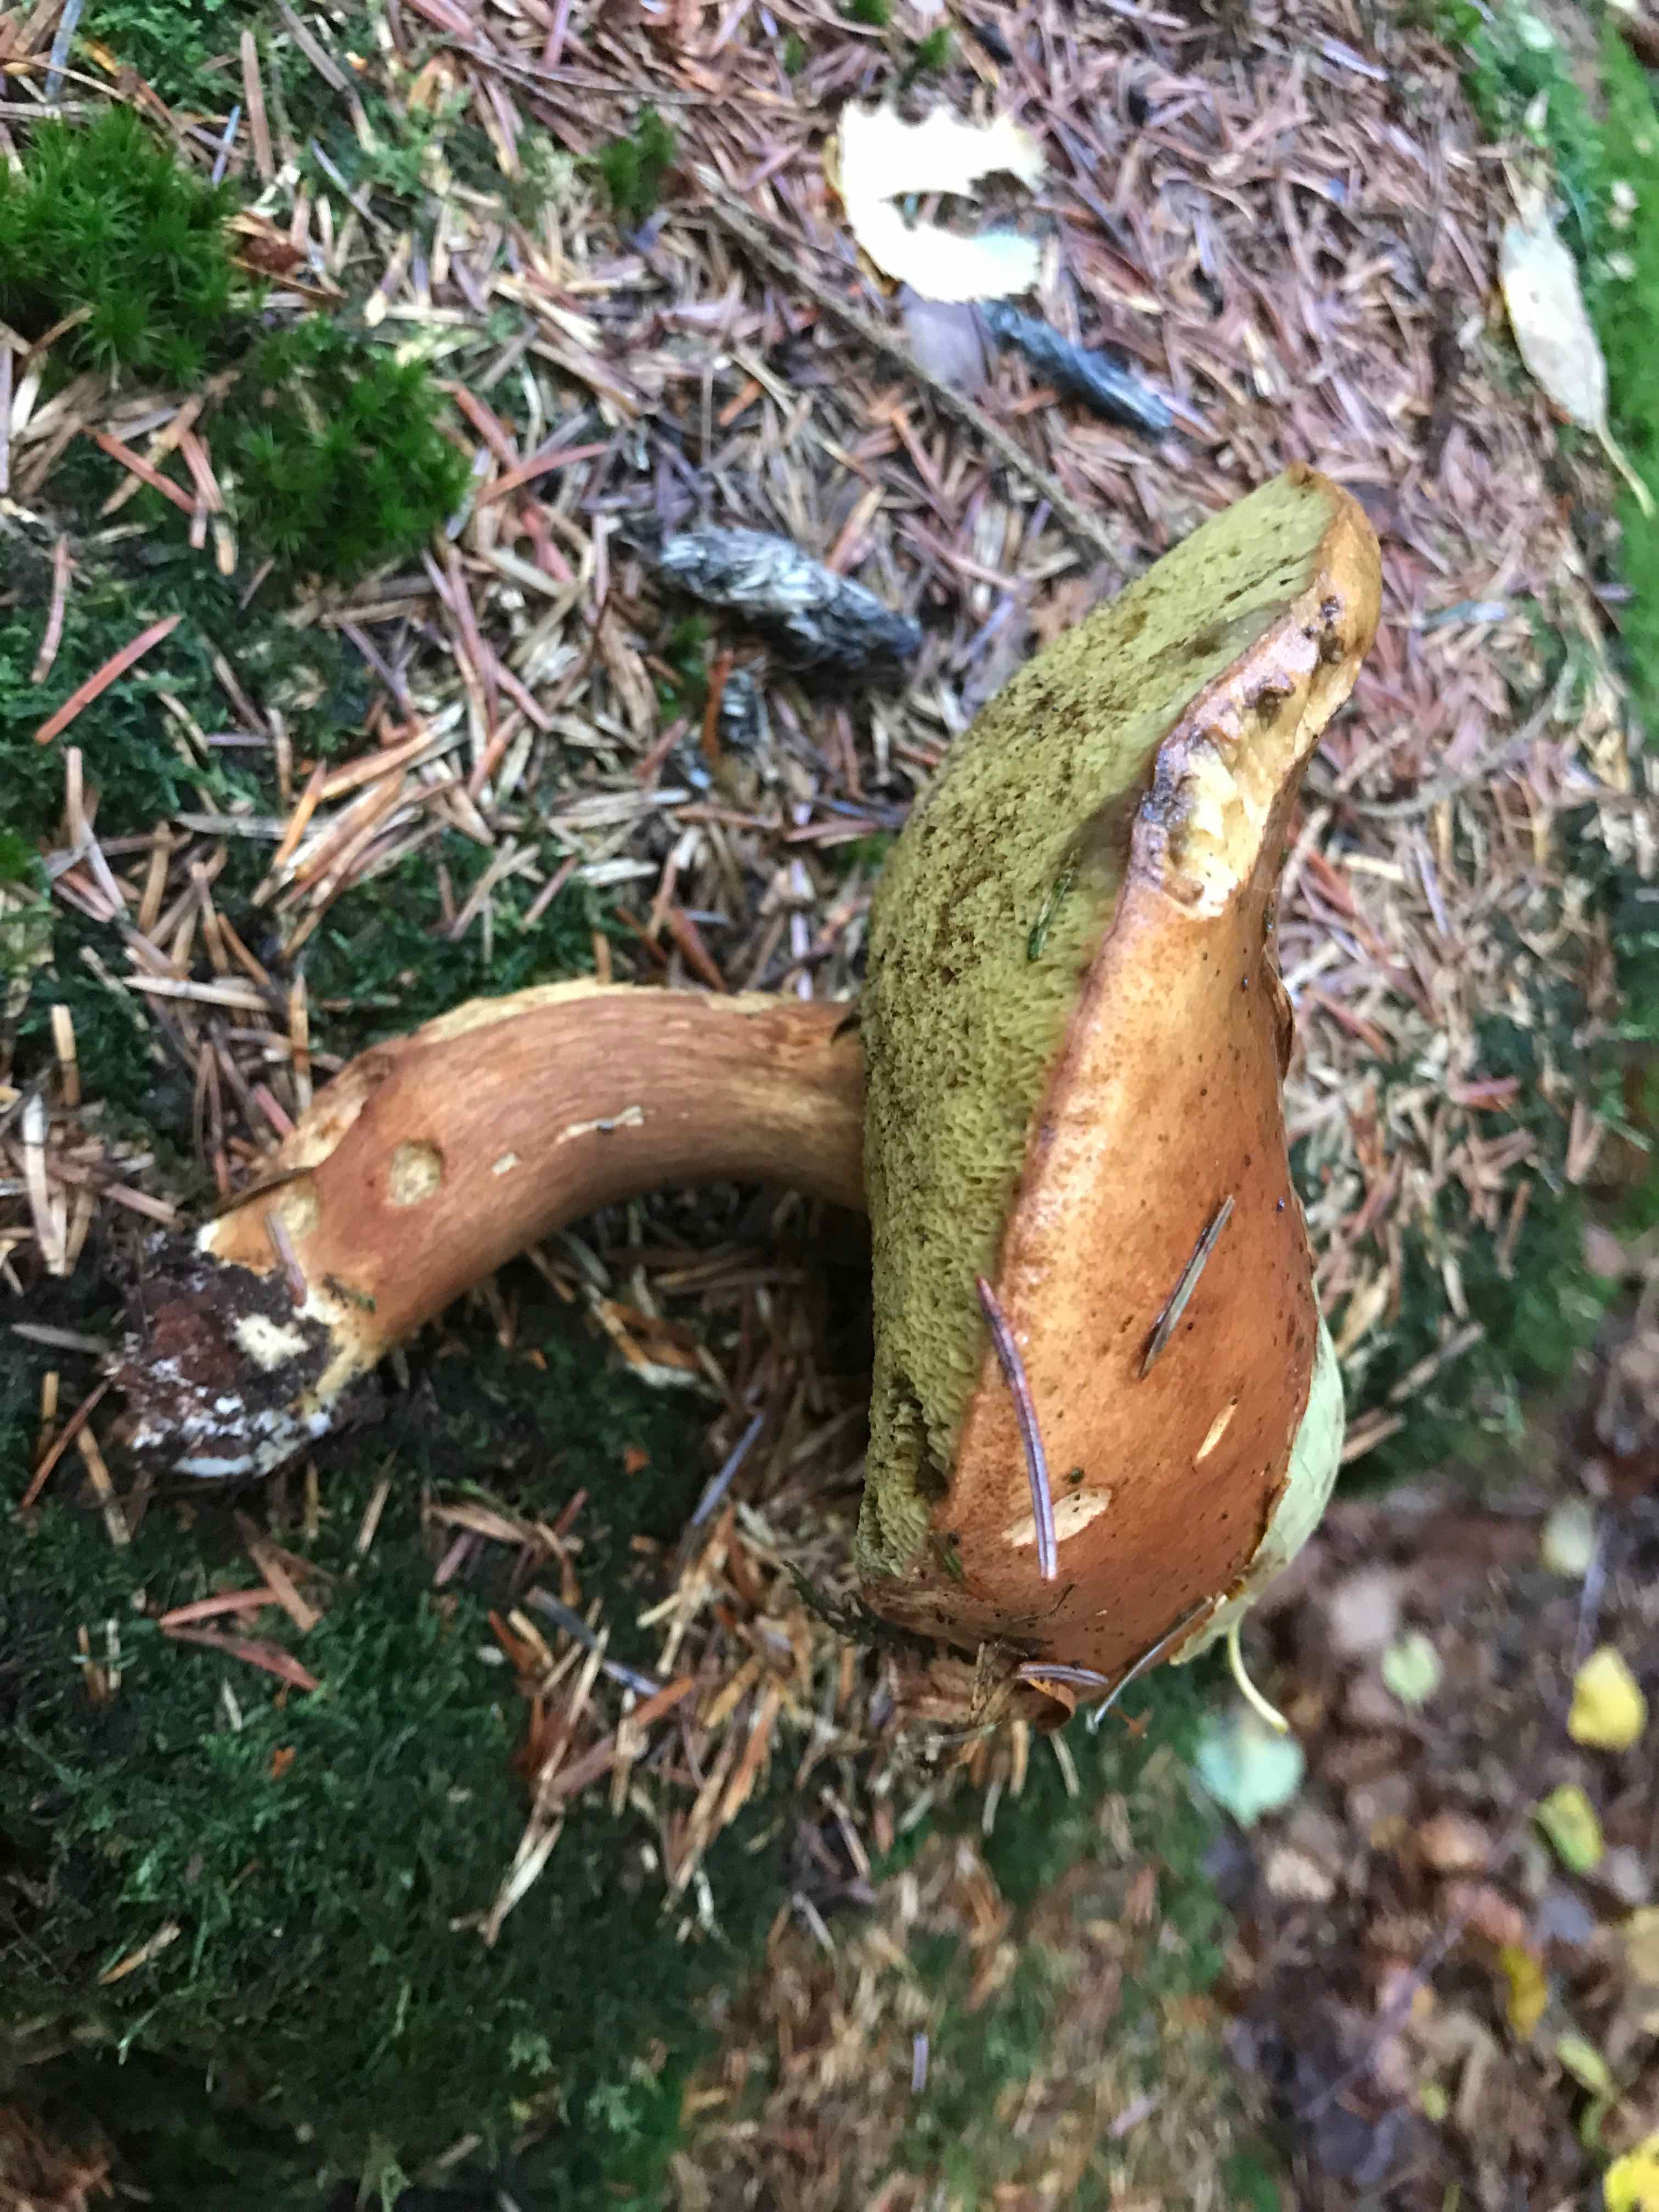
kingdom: Fungi
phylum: Basidiomycota
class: Agaricomycetes
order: Boletales
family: Boletaceae
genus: Imleria
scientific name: Imleria badia
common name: brunstokket rørhat
